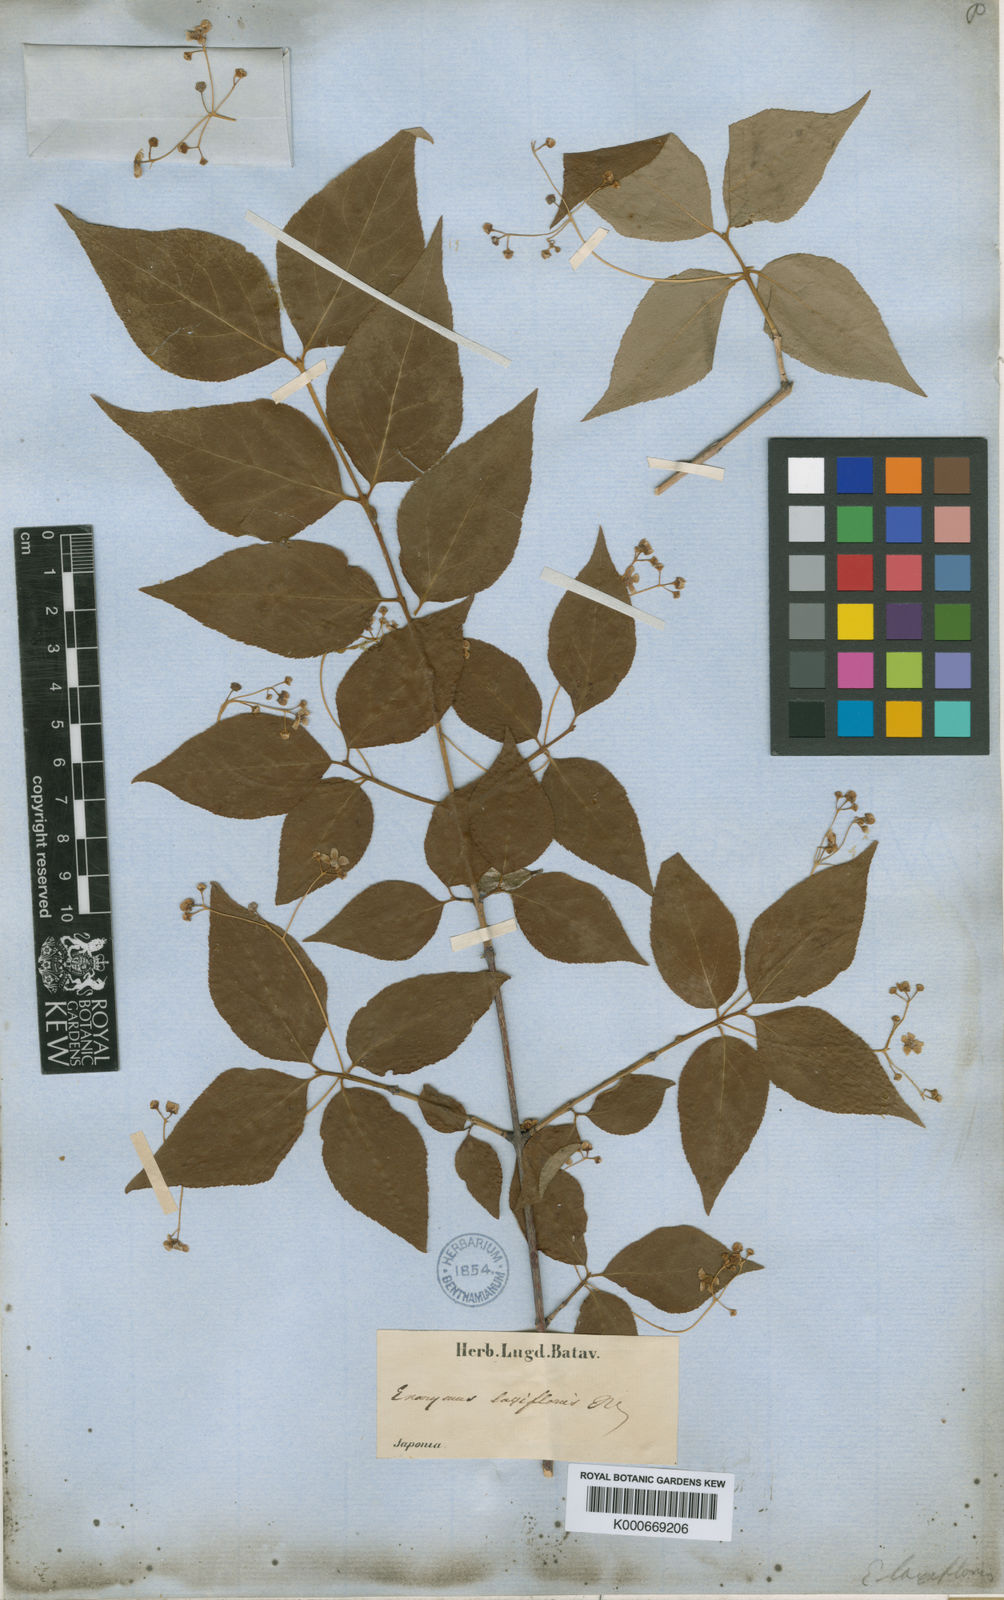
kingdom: Plantae
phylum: Tracheophyta
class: Magnoliopsida
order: Celastrales
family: Celastraceae
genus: Euonymus
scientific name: Euonymus oxyphyllus
